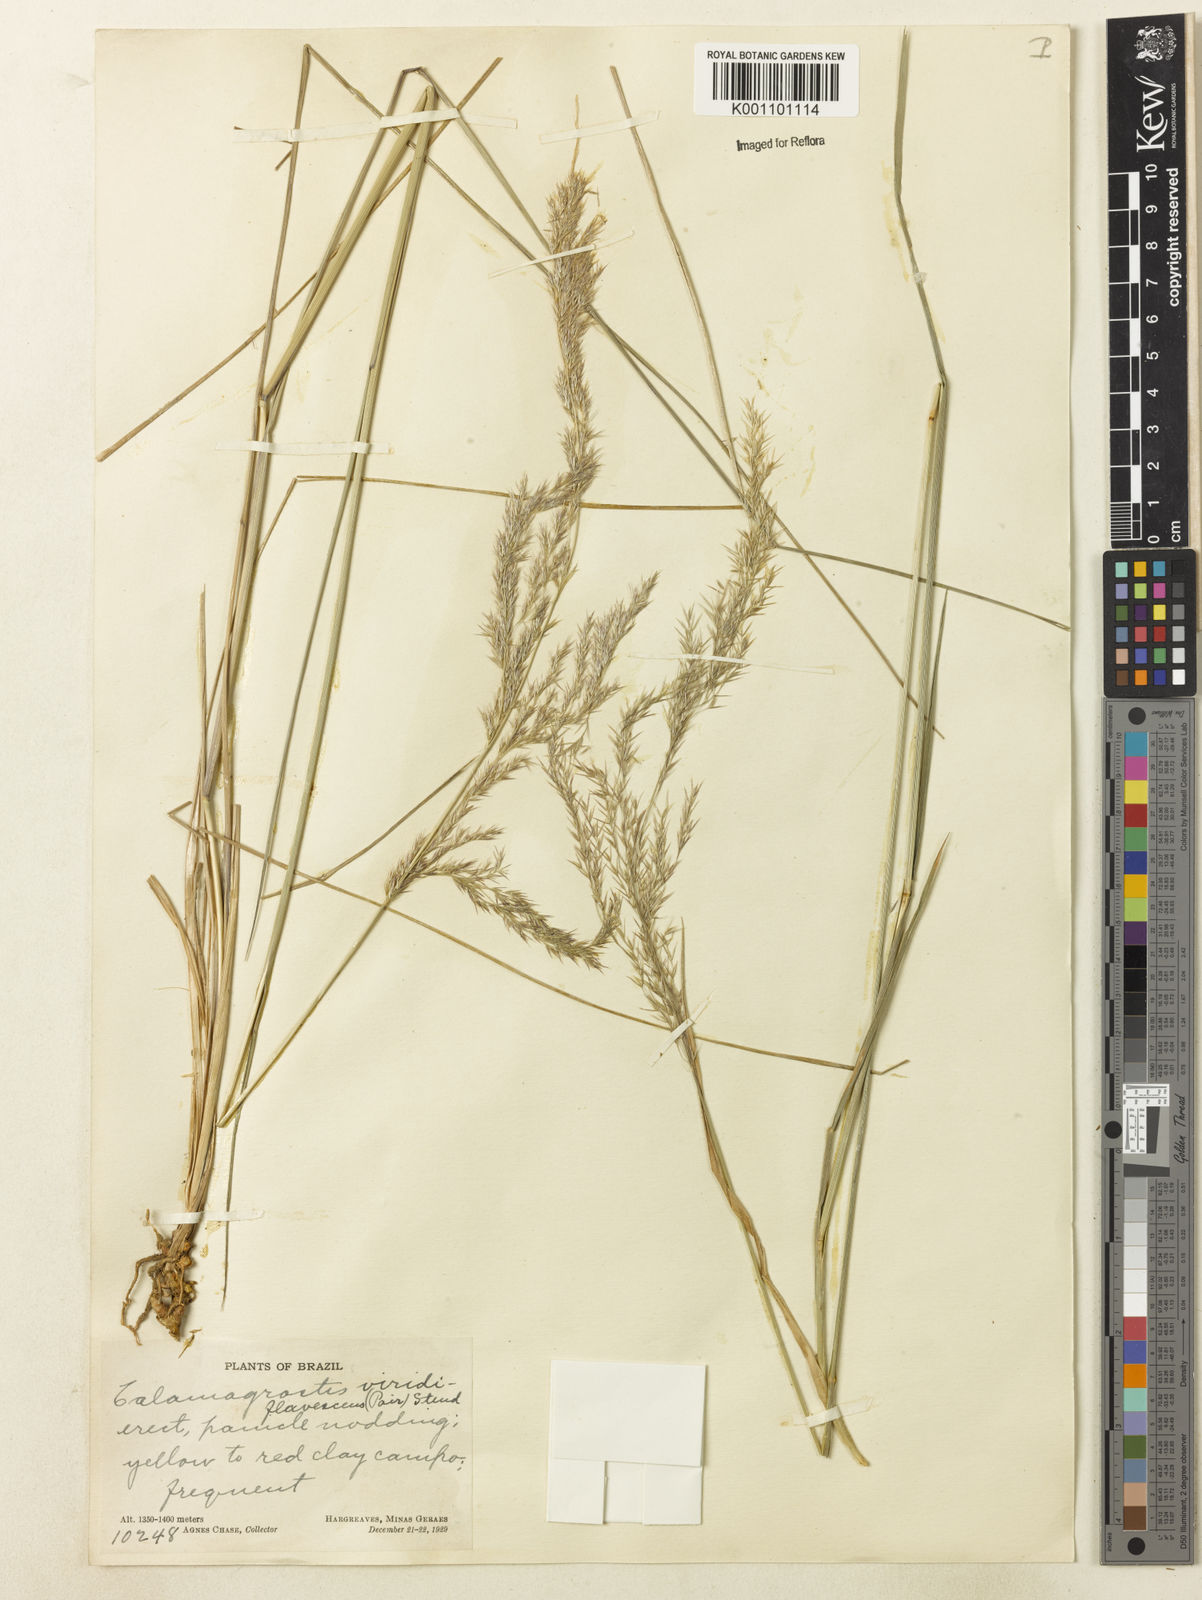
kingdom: Plantae
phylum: Tracheophyta
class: Liliopsida
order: Poales
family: Poaceae
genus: Cinnagrostis
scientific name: Cinnagrostis viridiflavescens
